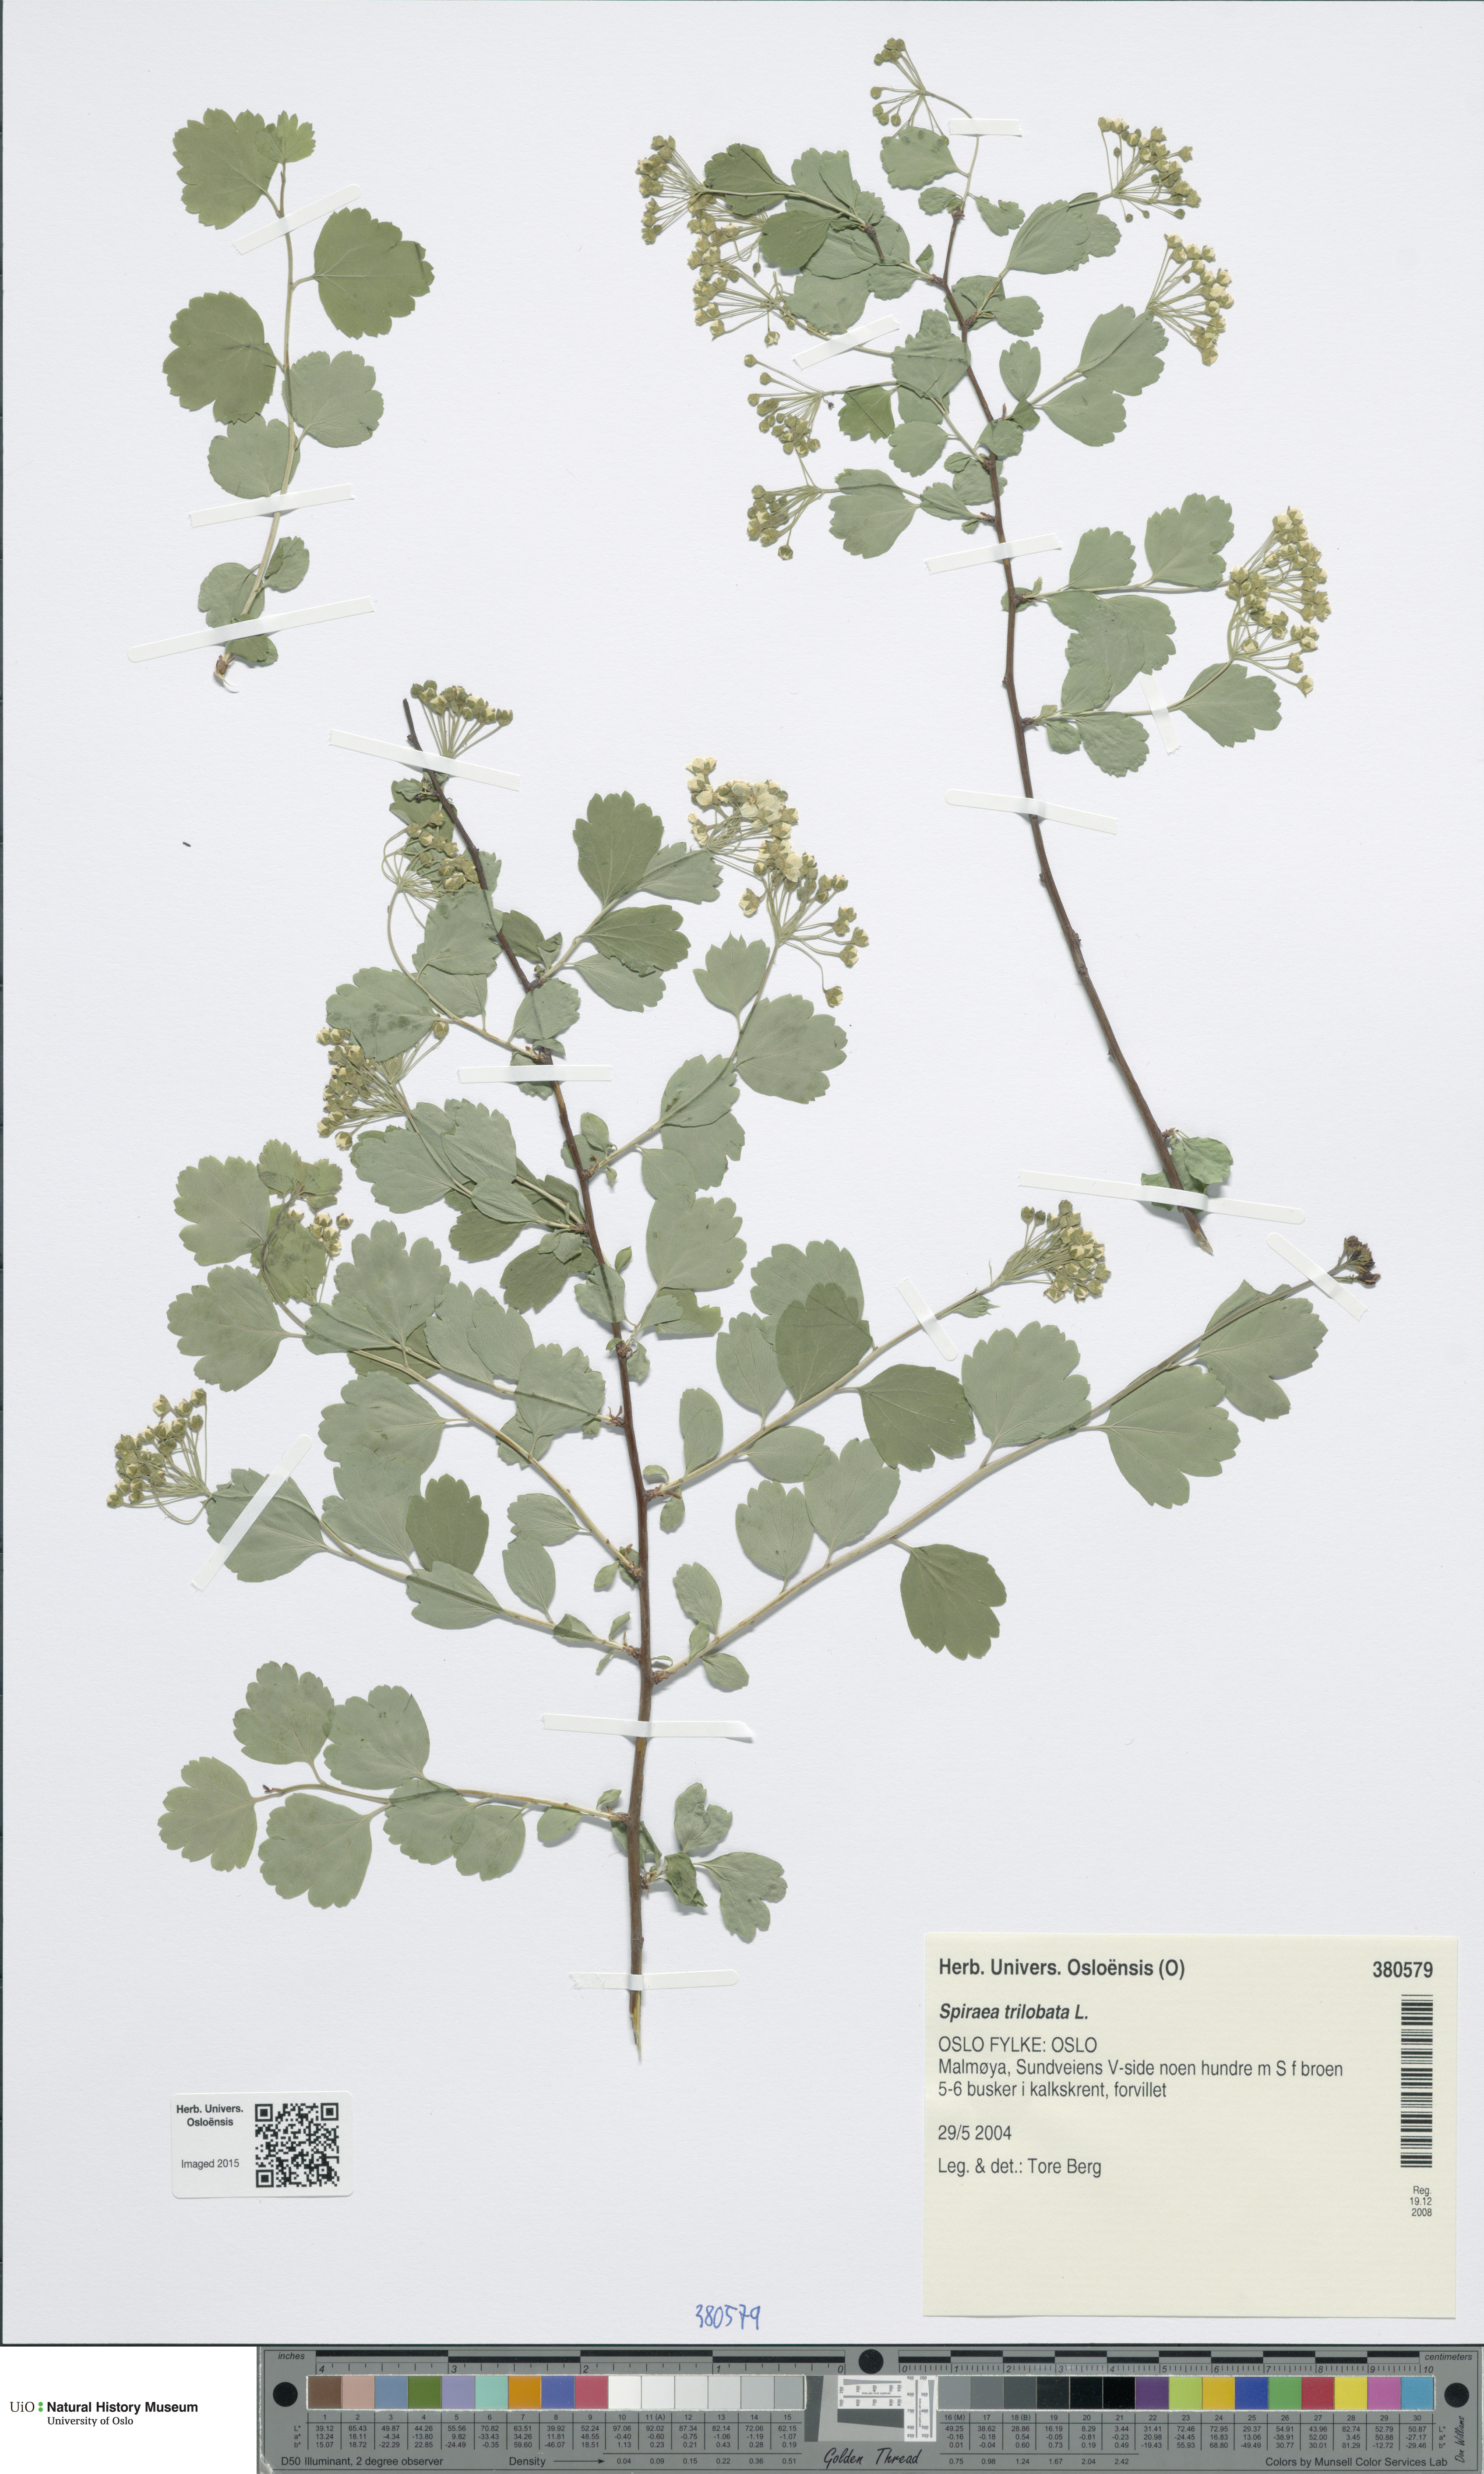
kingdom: Plantae
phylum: Tracheophyta
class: Magnoliopsida
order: Rosales
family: Rosaceae
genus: Spiraea
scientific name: Spiraea trilobata
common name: Asian meadowsweet
